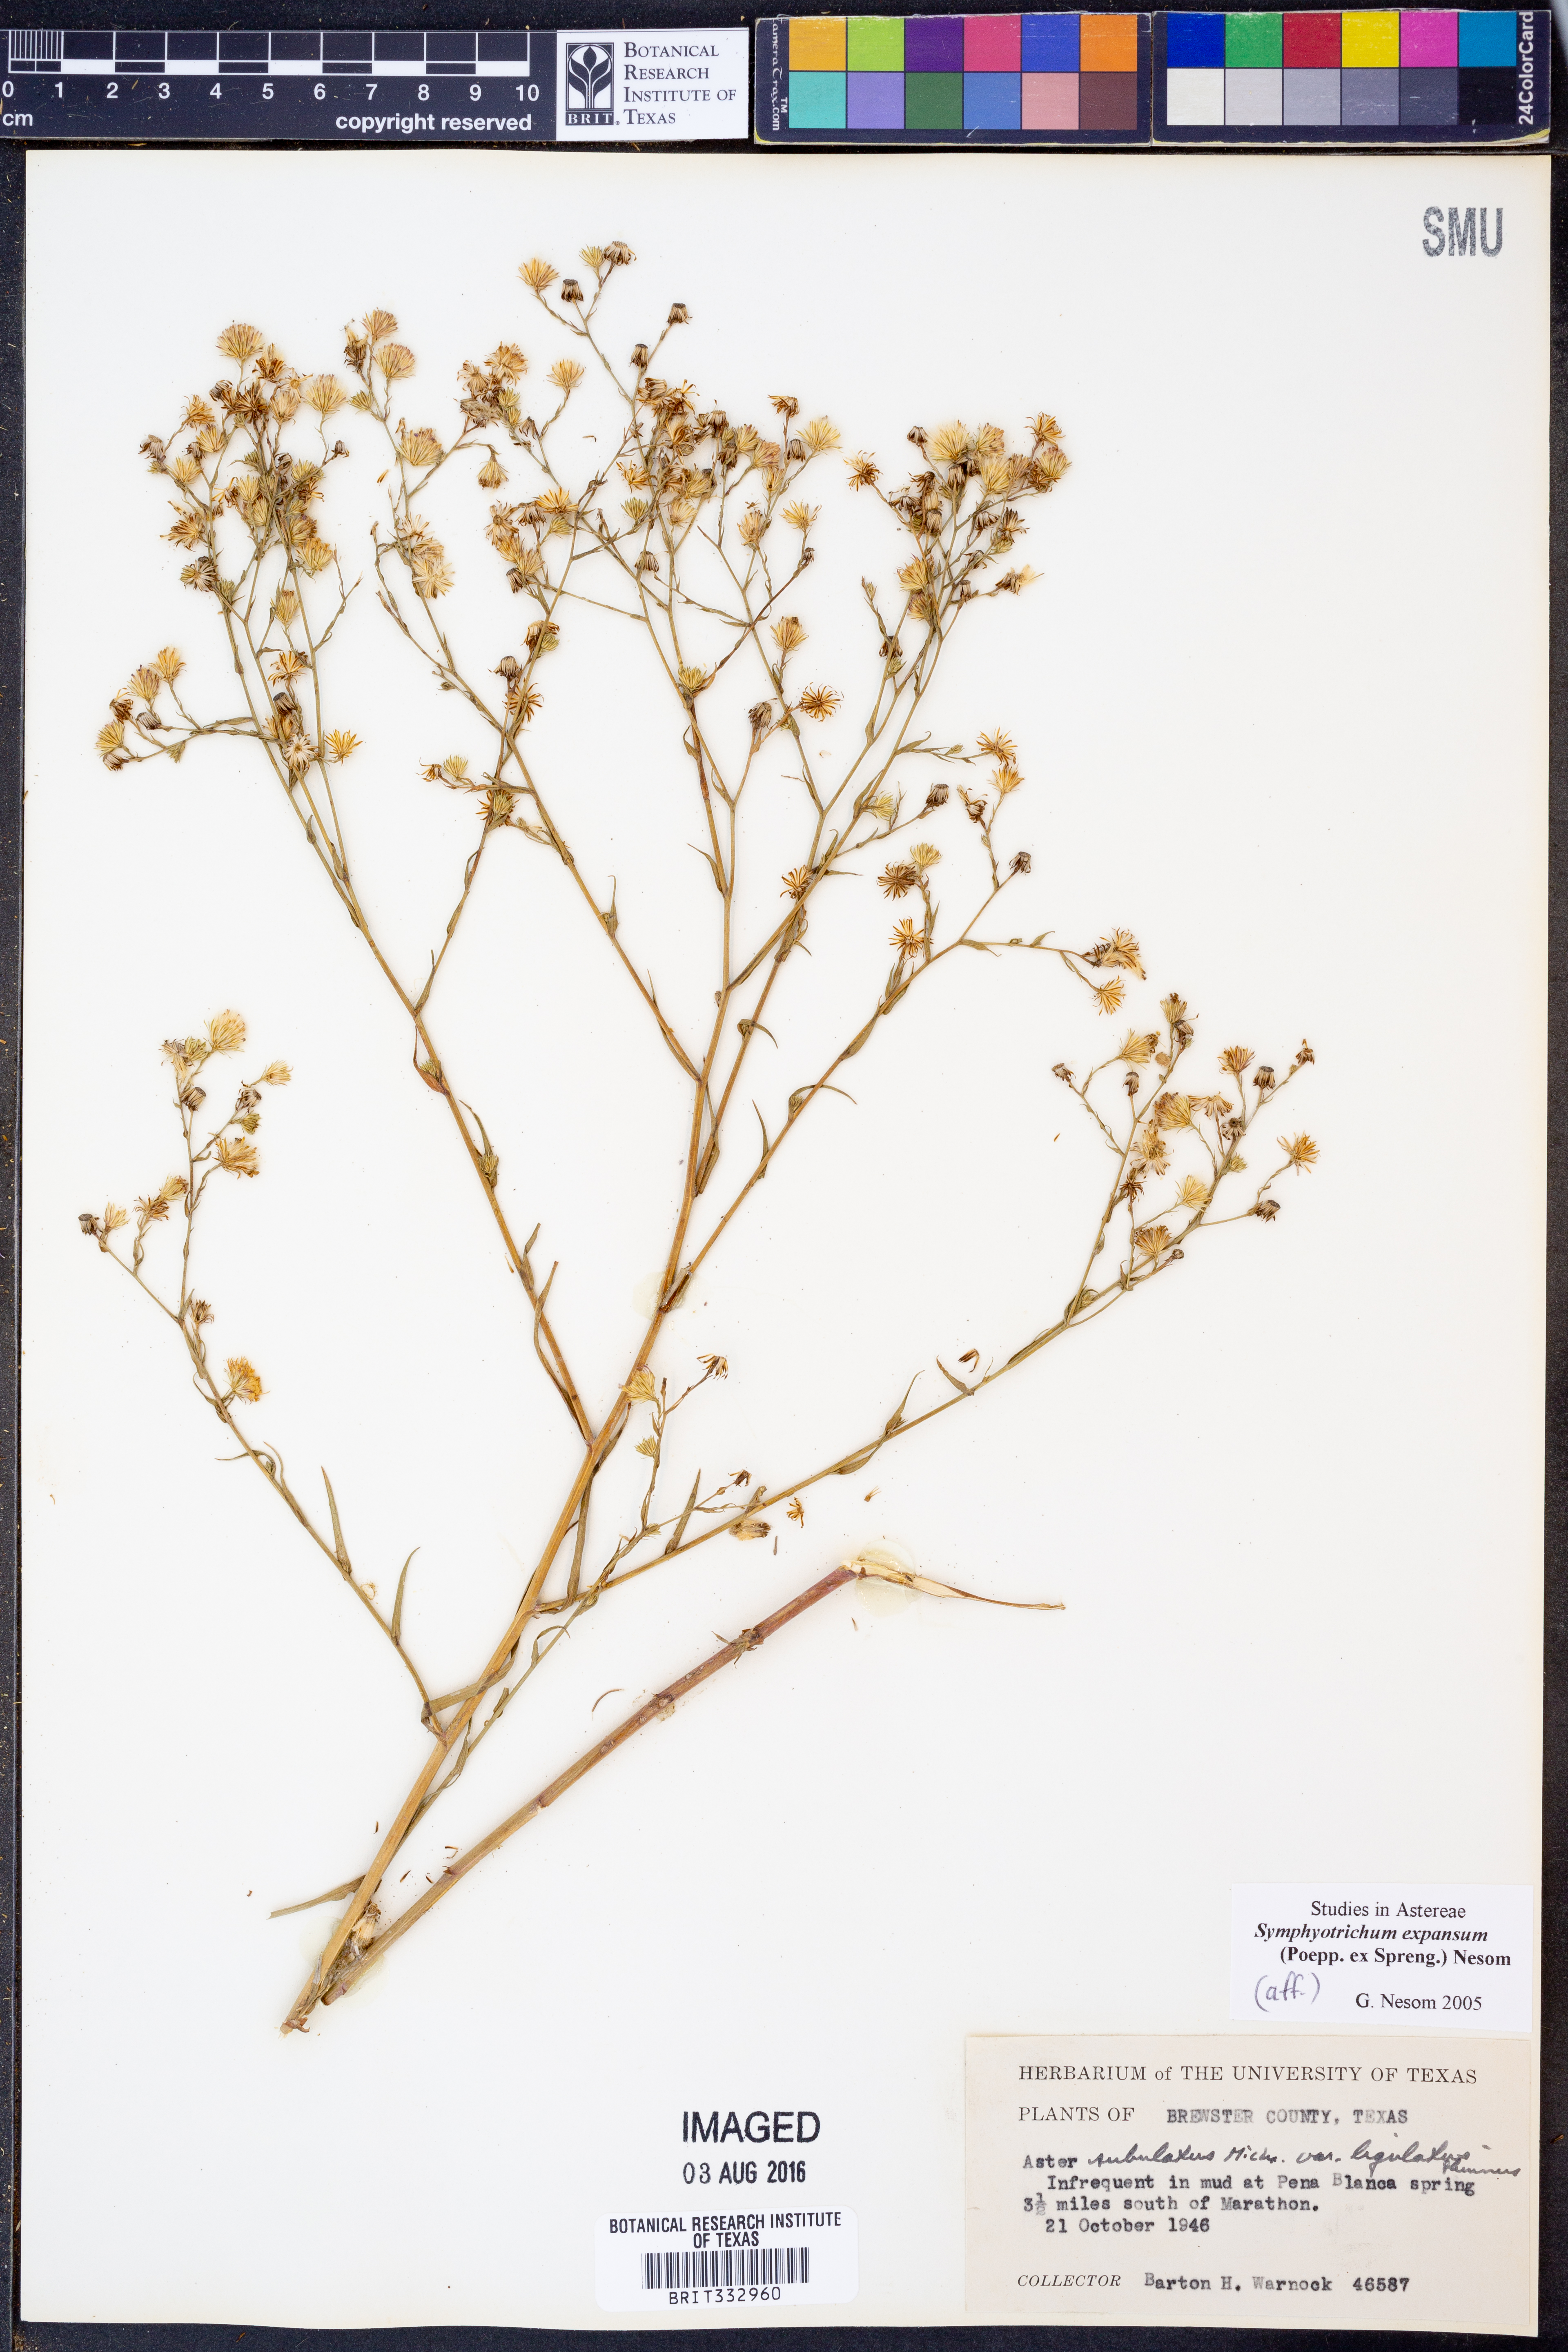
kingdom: Plantae
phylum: Tracheophyta
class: Magnoliopsida
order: Asterales
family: Asteraceae
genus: Symphyotrichum
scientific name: Symphyotrichum expansum
